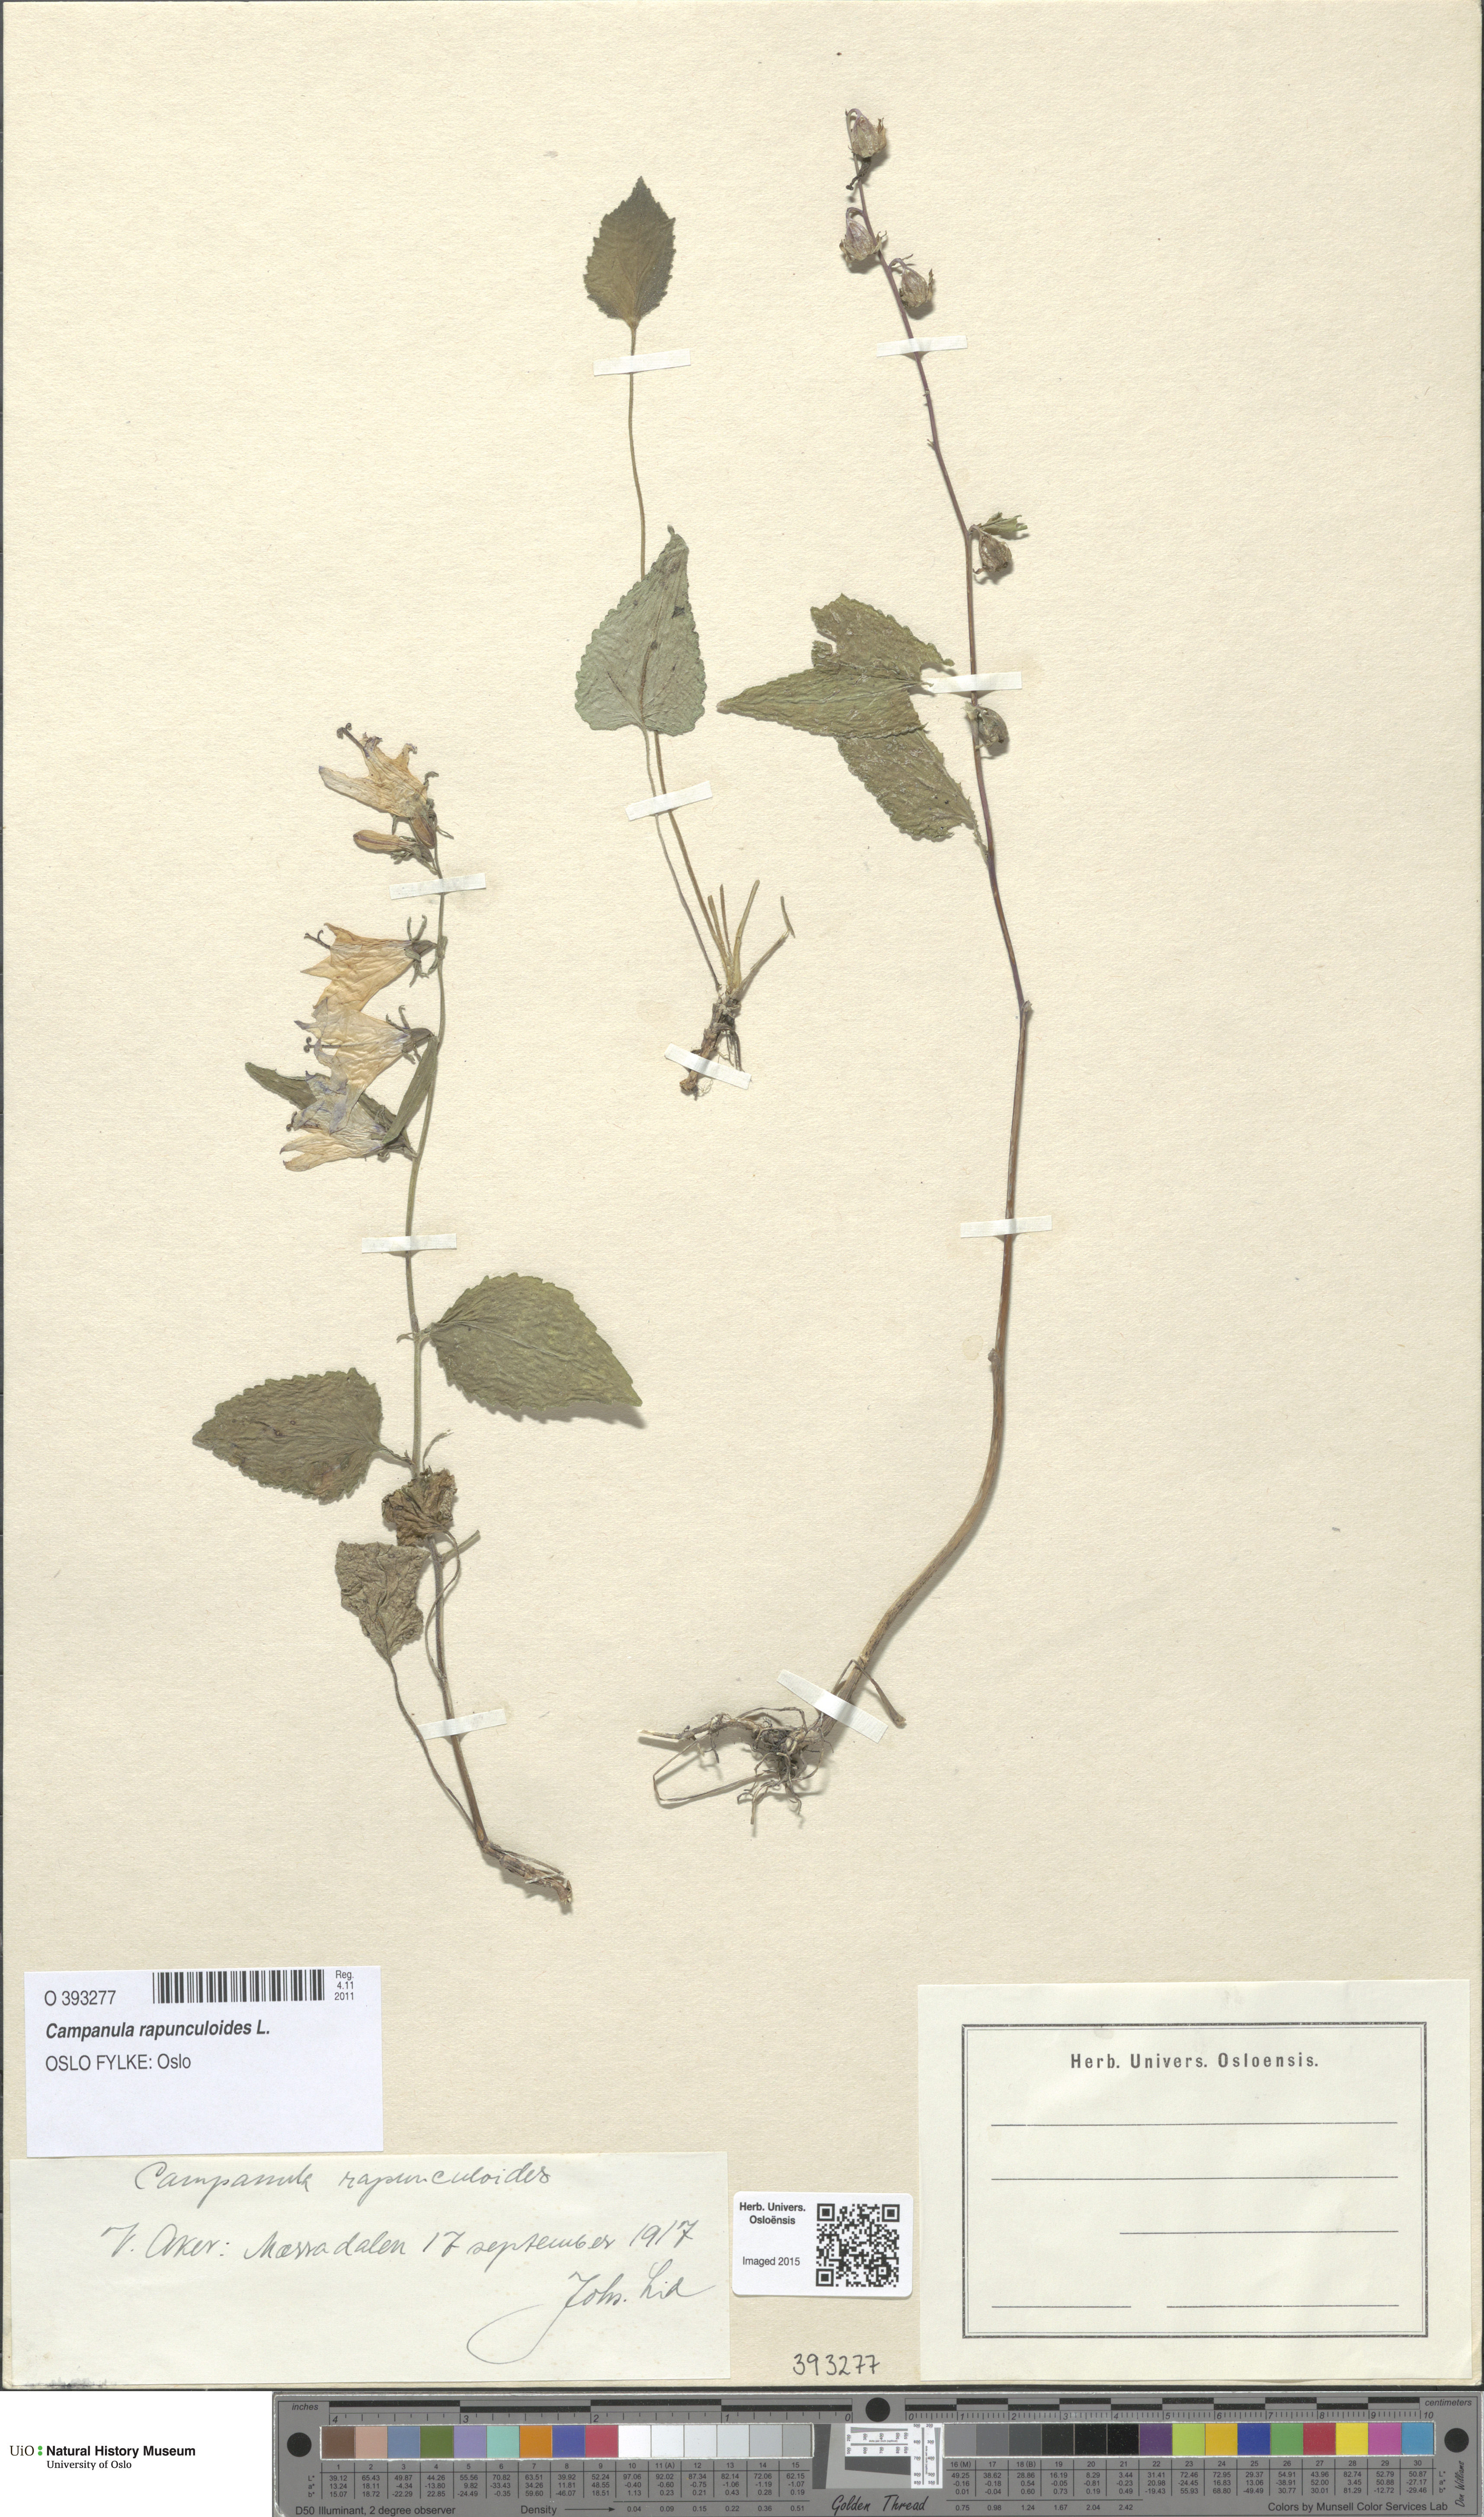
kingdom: Plantae
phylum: Tracheophyta
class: Magnoliopsida
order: Asterales
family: Campanulaceae
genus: Campanula
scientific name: Campanula rapunculoides
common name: Creeping bellflower
